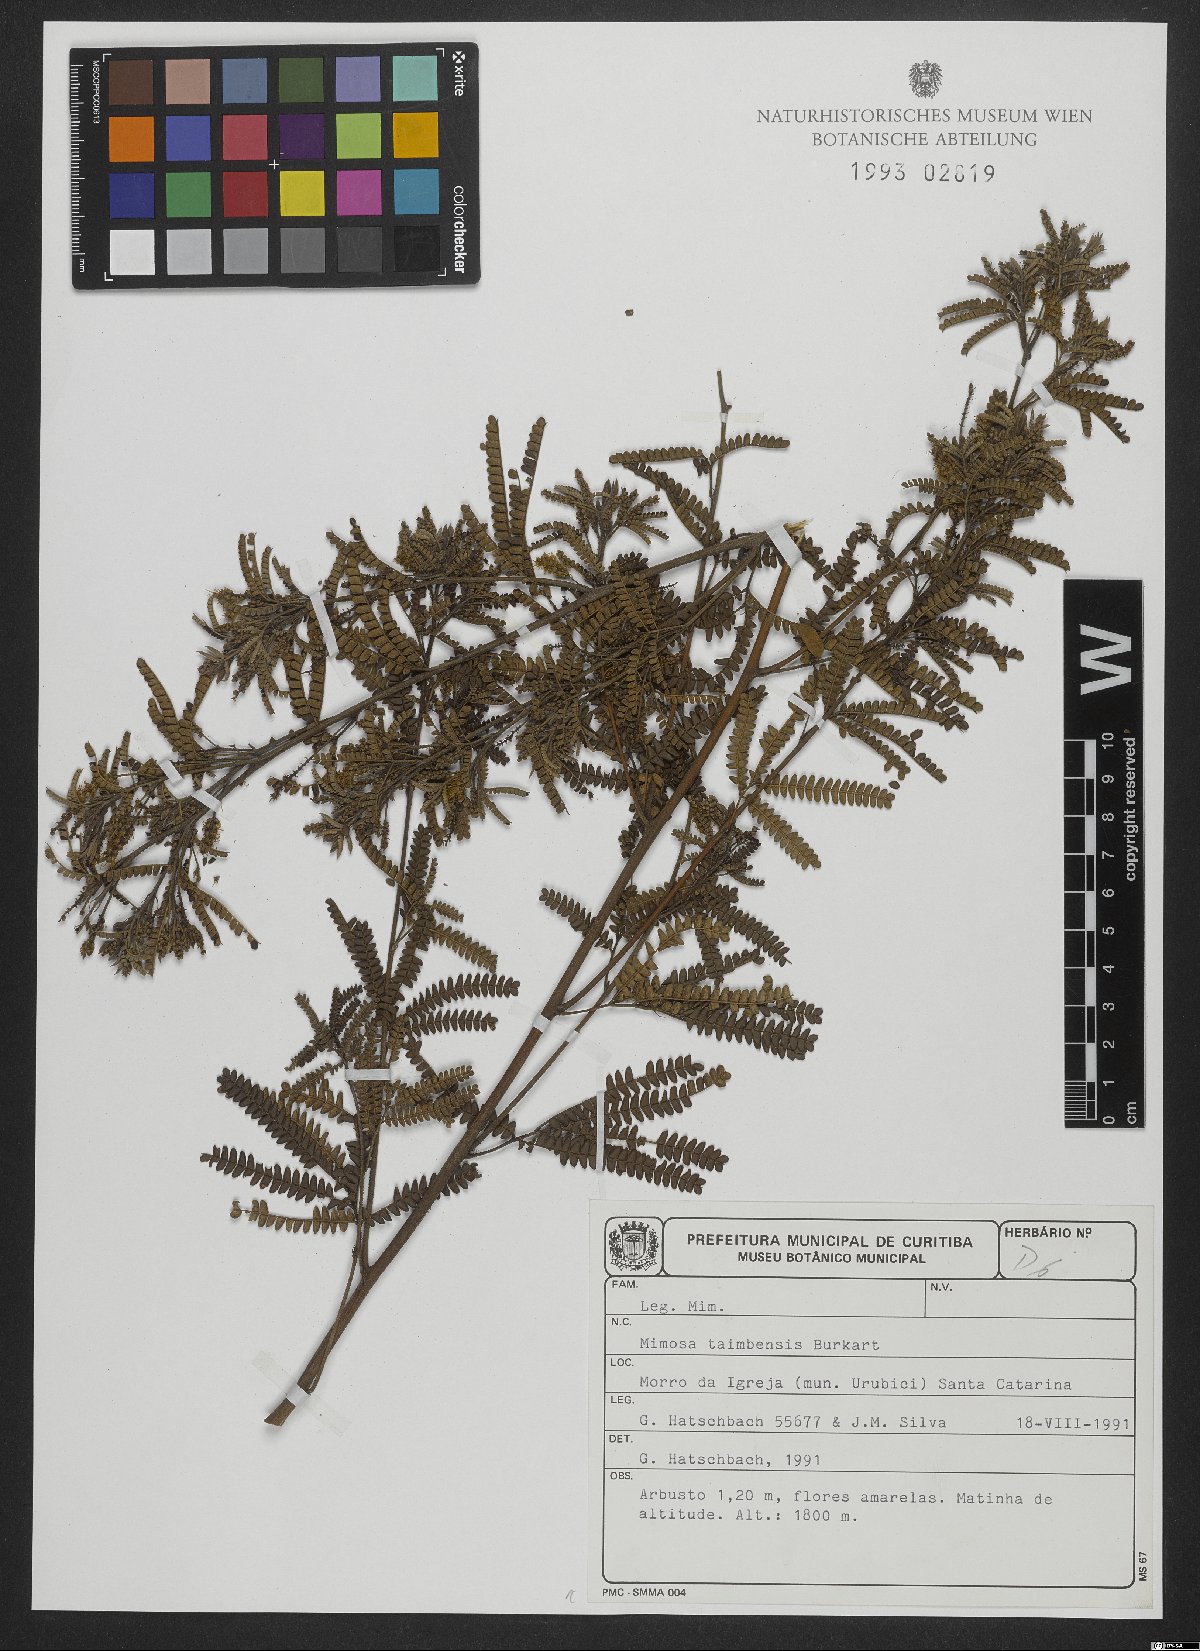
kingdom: Plantae
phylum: Tracheophyta
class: Magnoliopsida
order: Fabales
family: Fabaceae
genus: Mimosa
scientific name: Mimosa taimbensis
